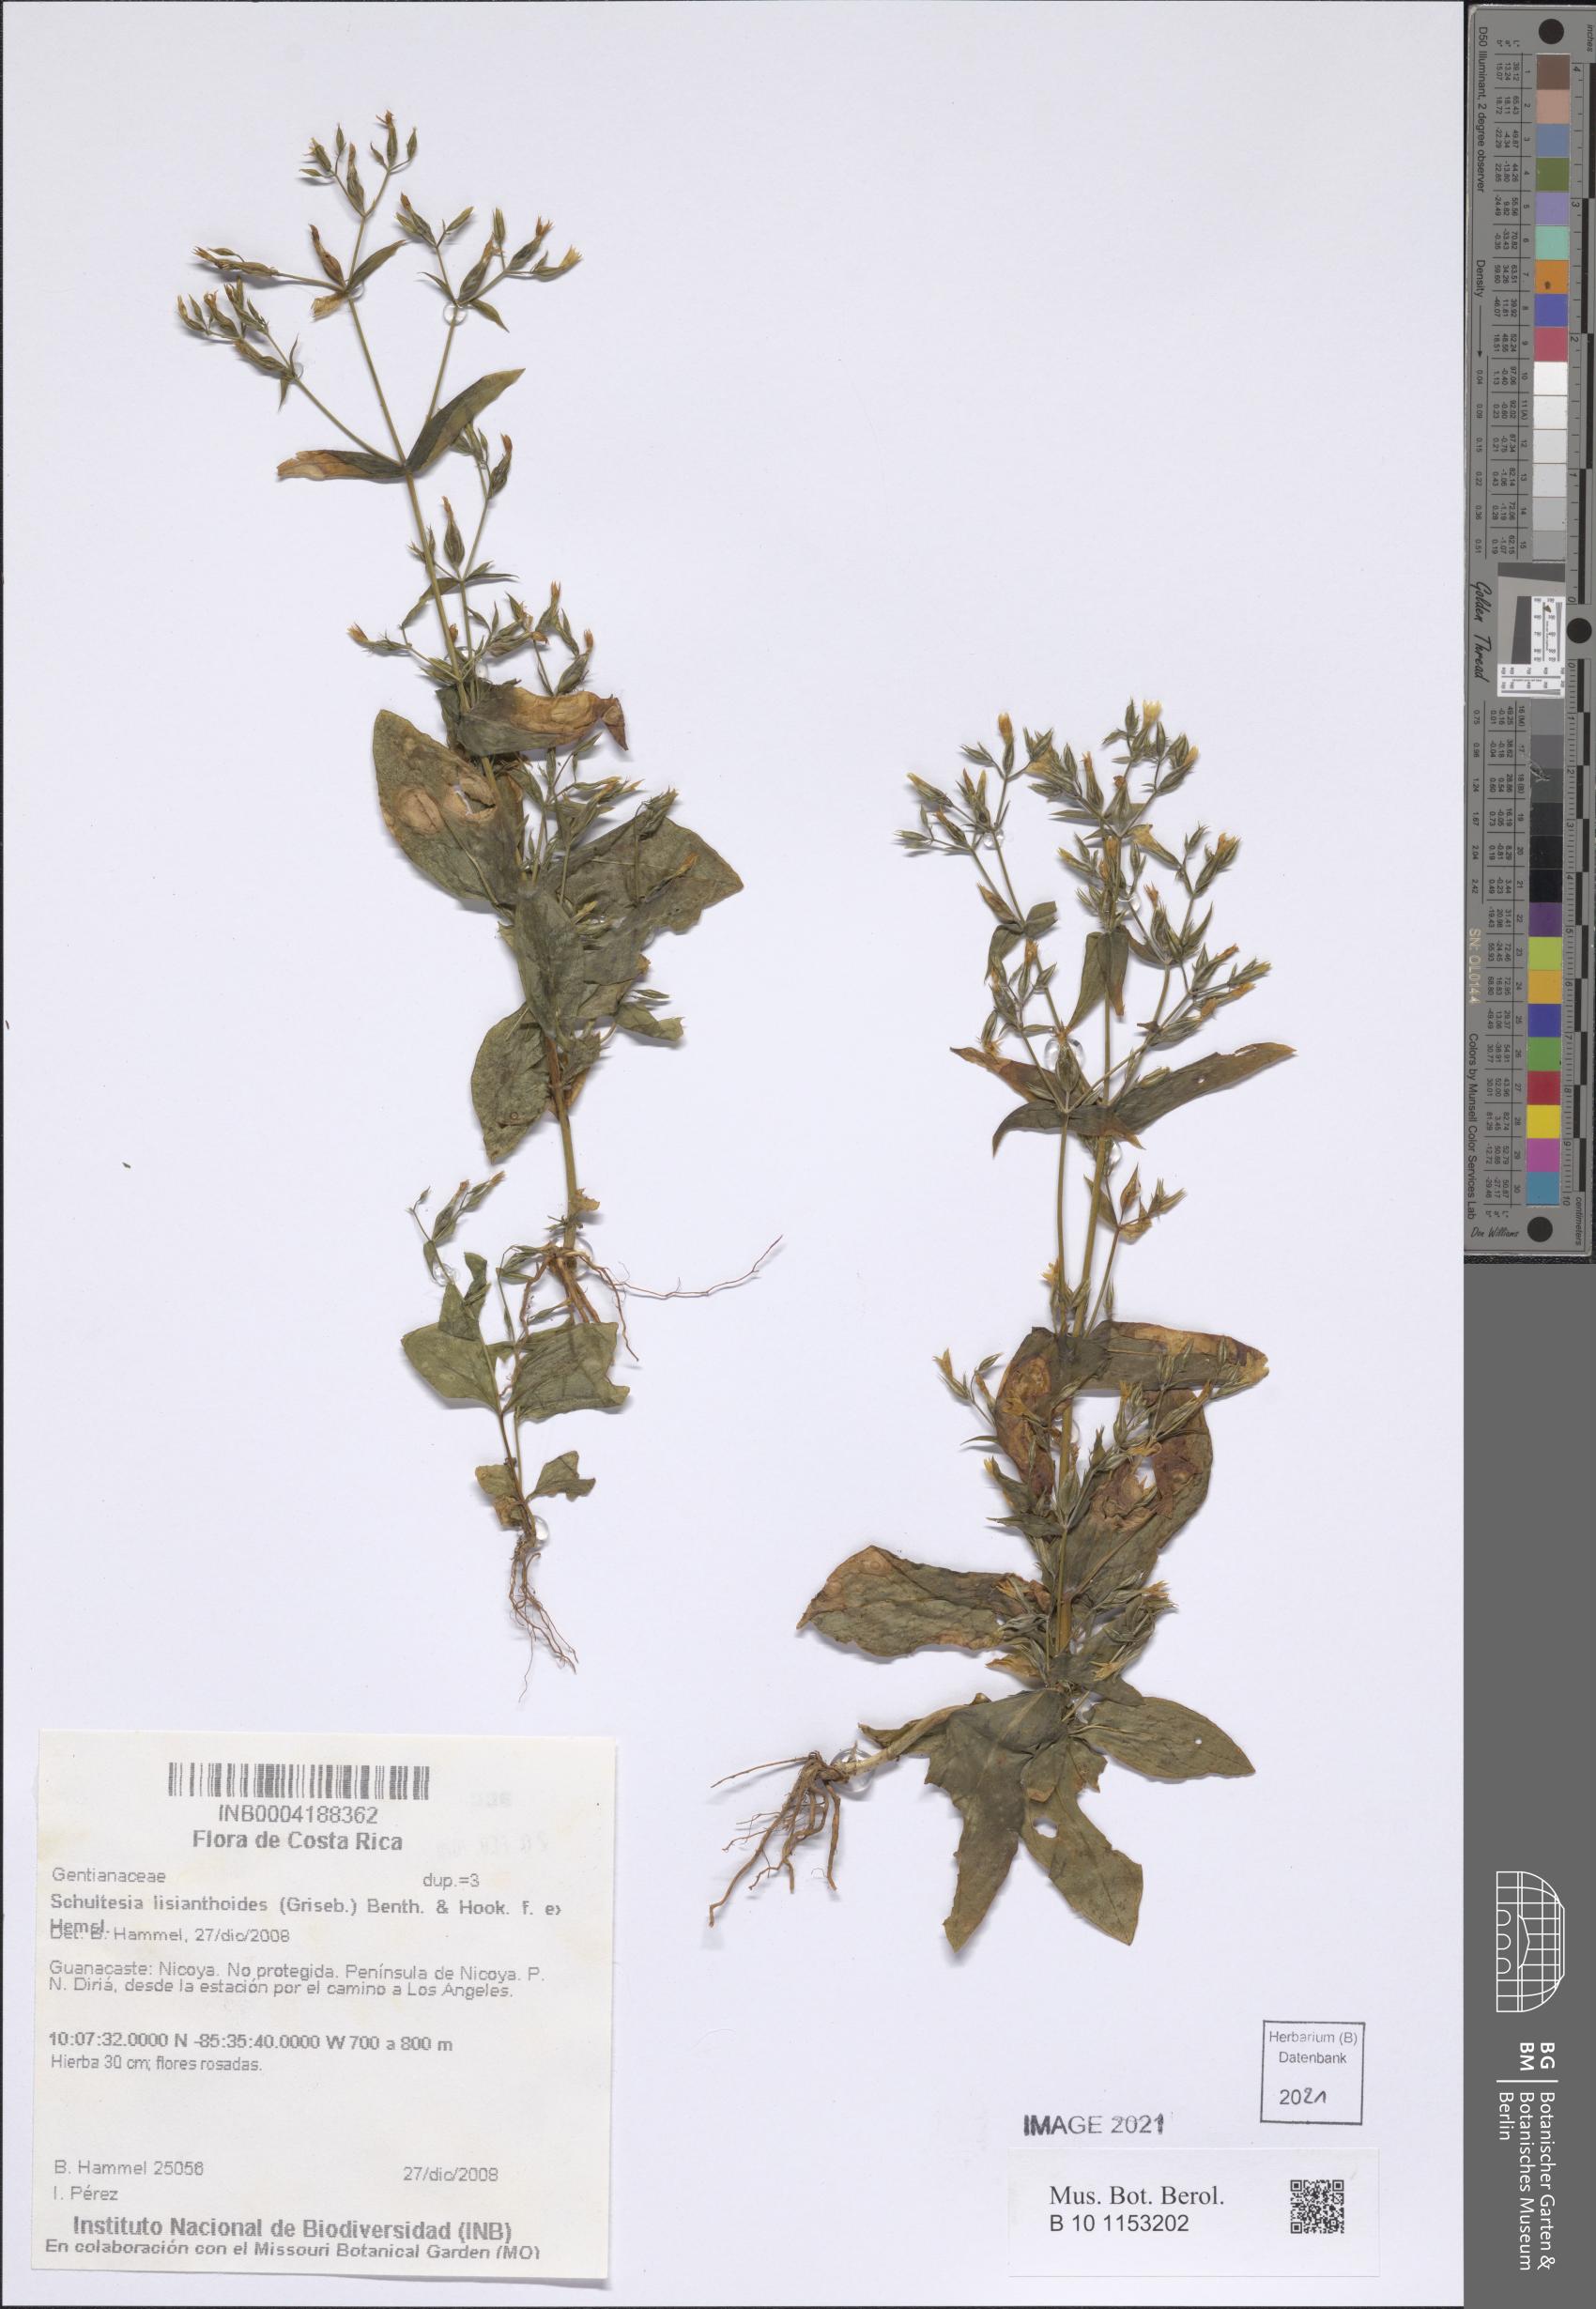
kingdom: Plantae
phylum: Tracheophyta
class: Magnoliopsida
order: Gentianales
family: Gentianaceae
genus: Schultesia
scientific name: Schultesia lisianthoides
